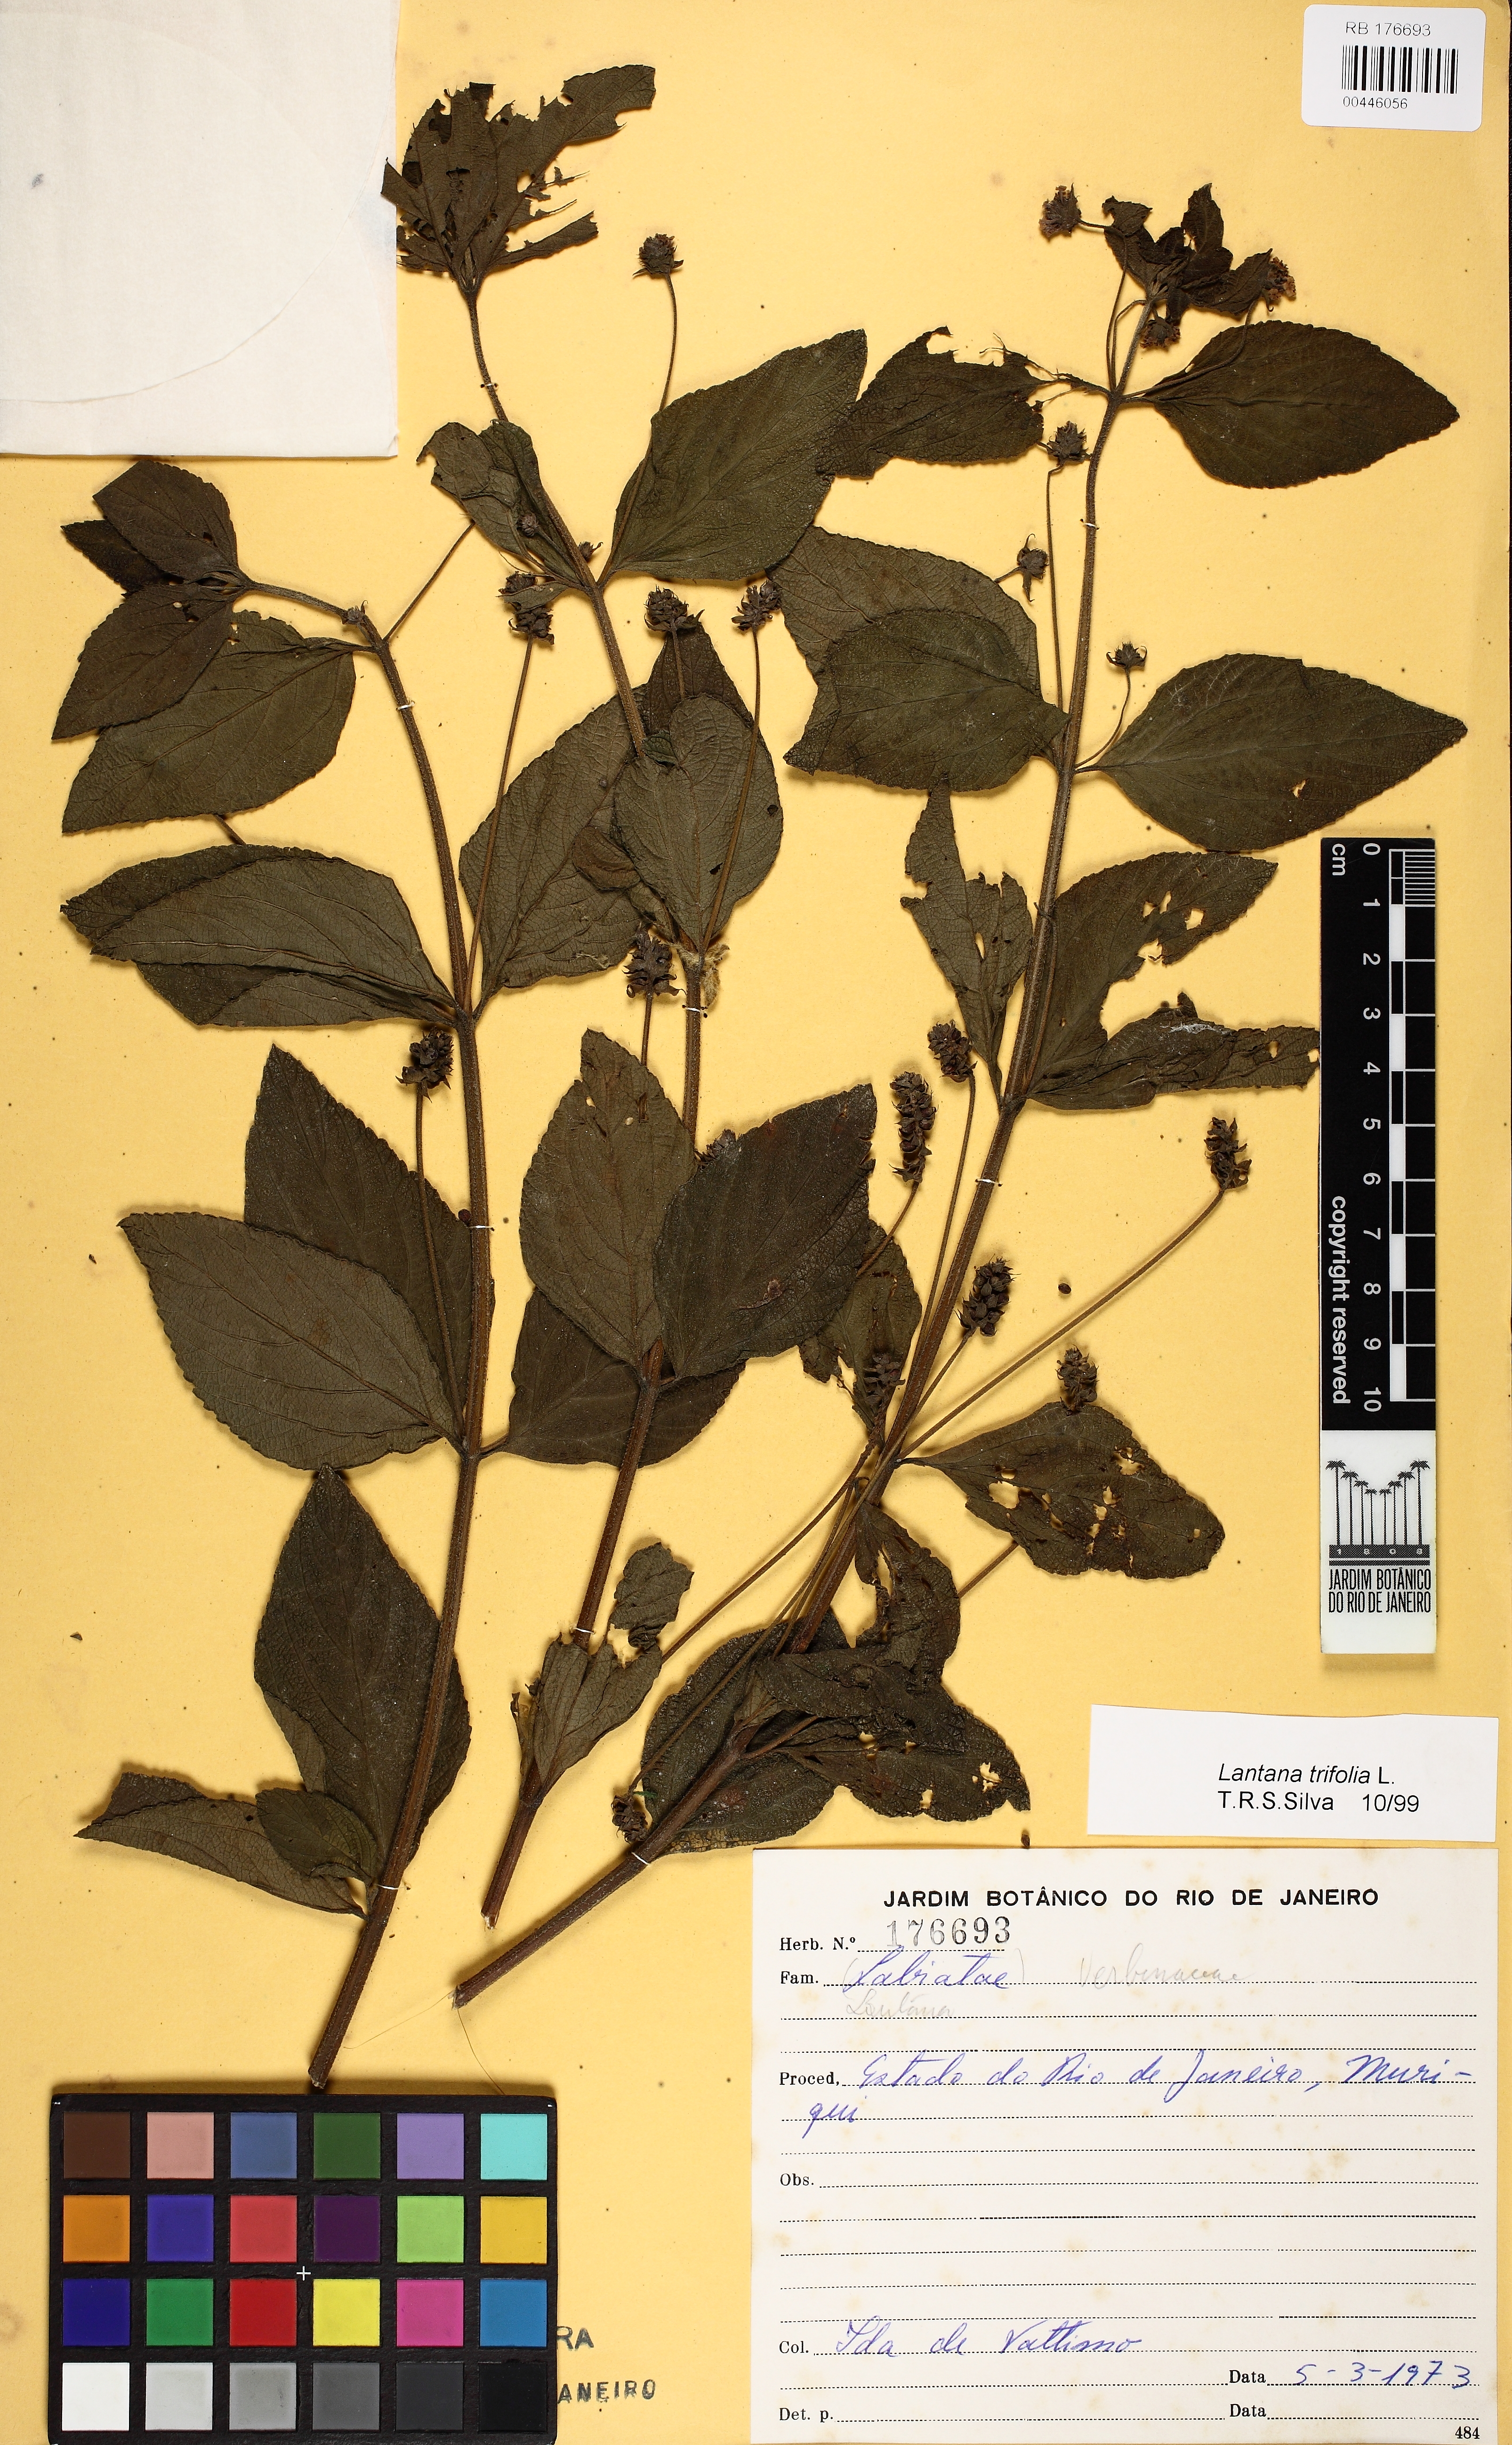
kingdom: Plantae
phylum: Tracheophyta
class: Magnoliopsida
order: Lamiales
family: Verbenaceae
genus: Lantana
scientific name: Lantana trifolia
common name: Sweet-sage
